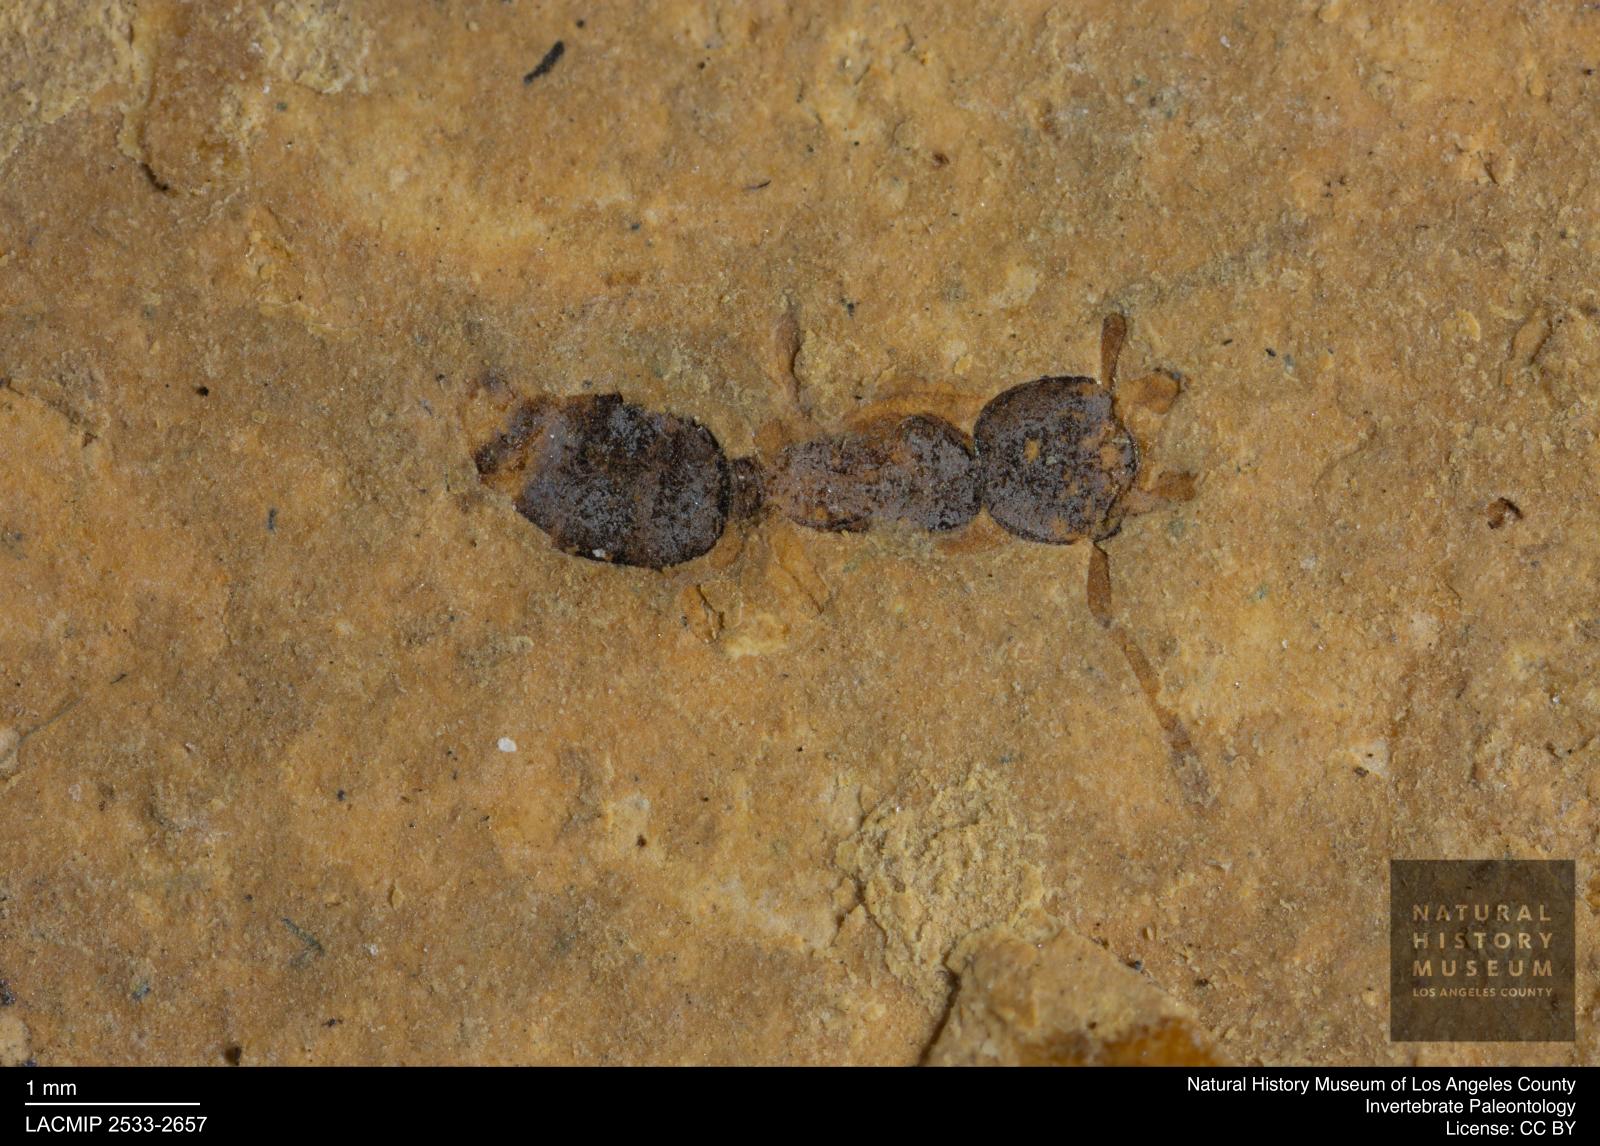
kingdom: Animalia
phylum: Arthropoda
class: Insecta
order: Hymenoptera
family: Formicidae
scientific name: Formicidae
